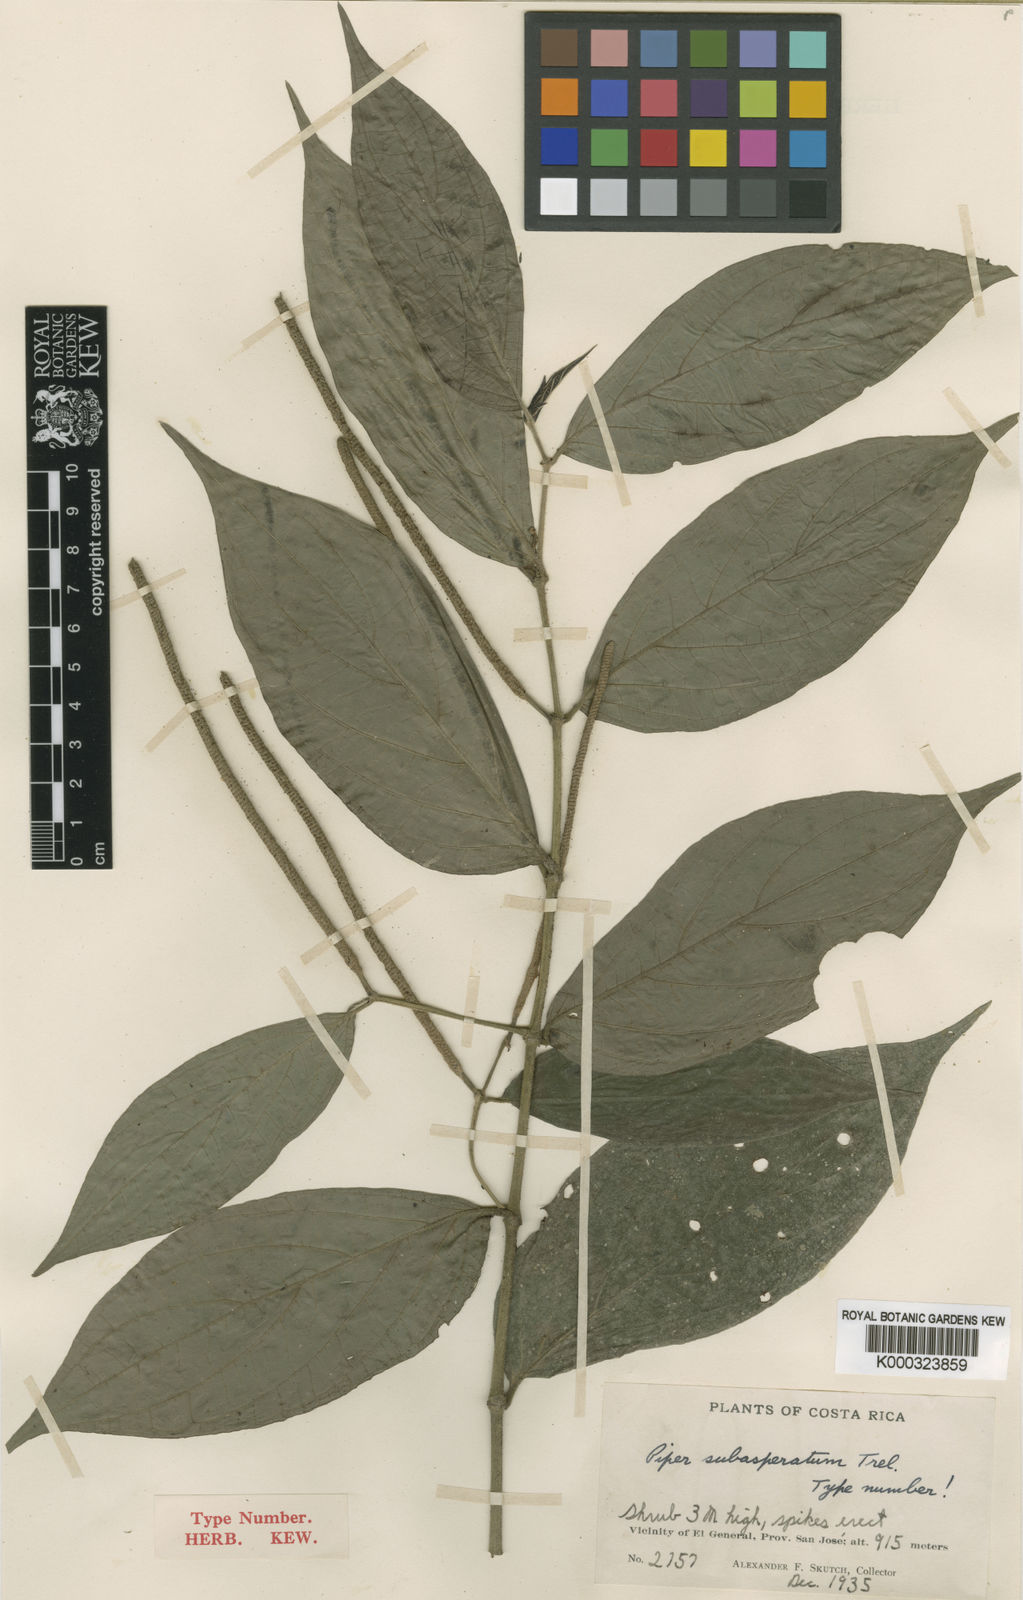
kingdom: Plantae
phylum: Tracheophyta
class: Magnoliopsida
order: Piperales
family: Piperaceae
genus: Piper
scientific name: Piper subasperatum
